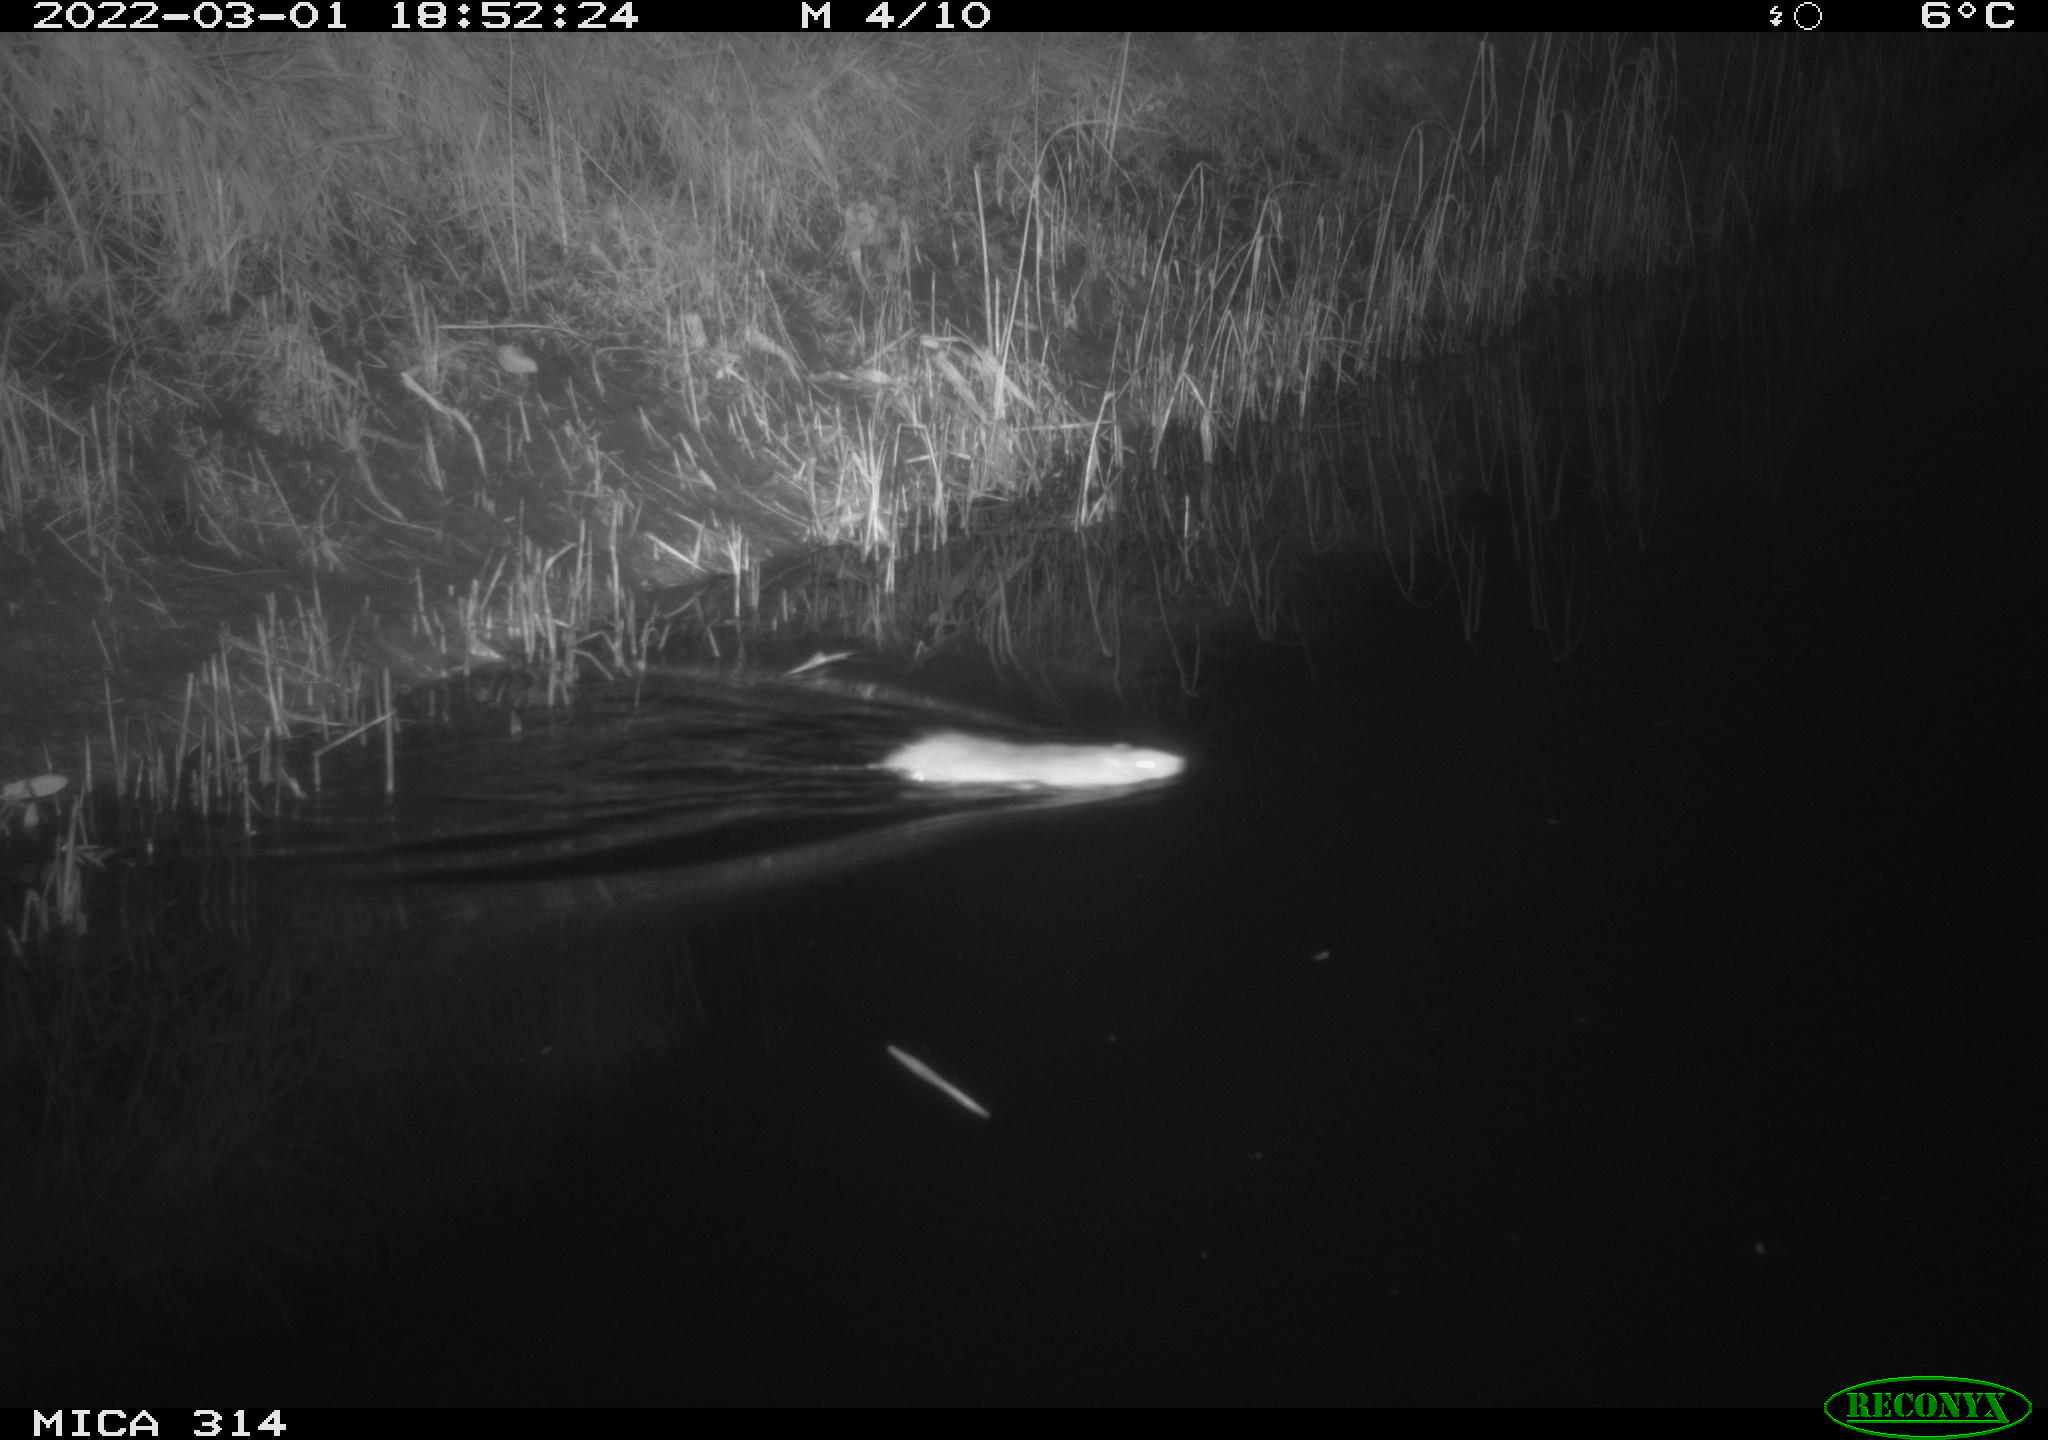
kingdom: Animalia
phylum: Chordata
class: Mammalia
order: Rodentia
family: Muridae
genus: Rattus
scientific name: Rattus norvegicus
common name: Brown rat
